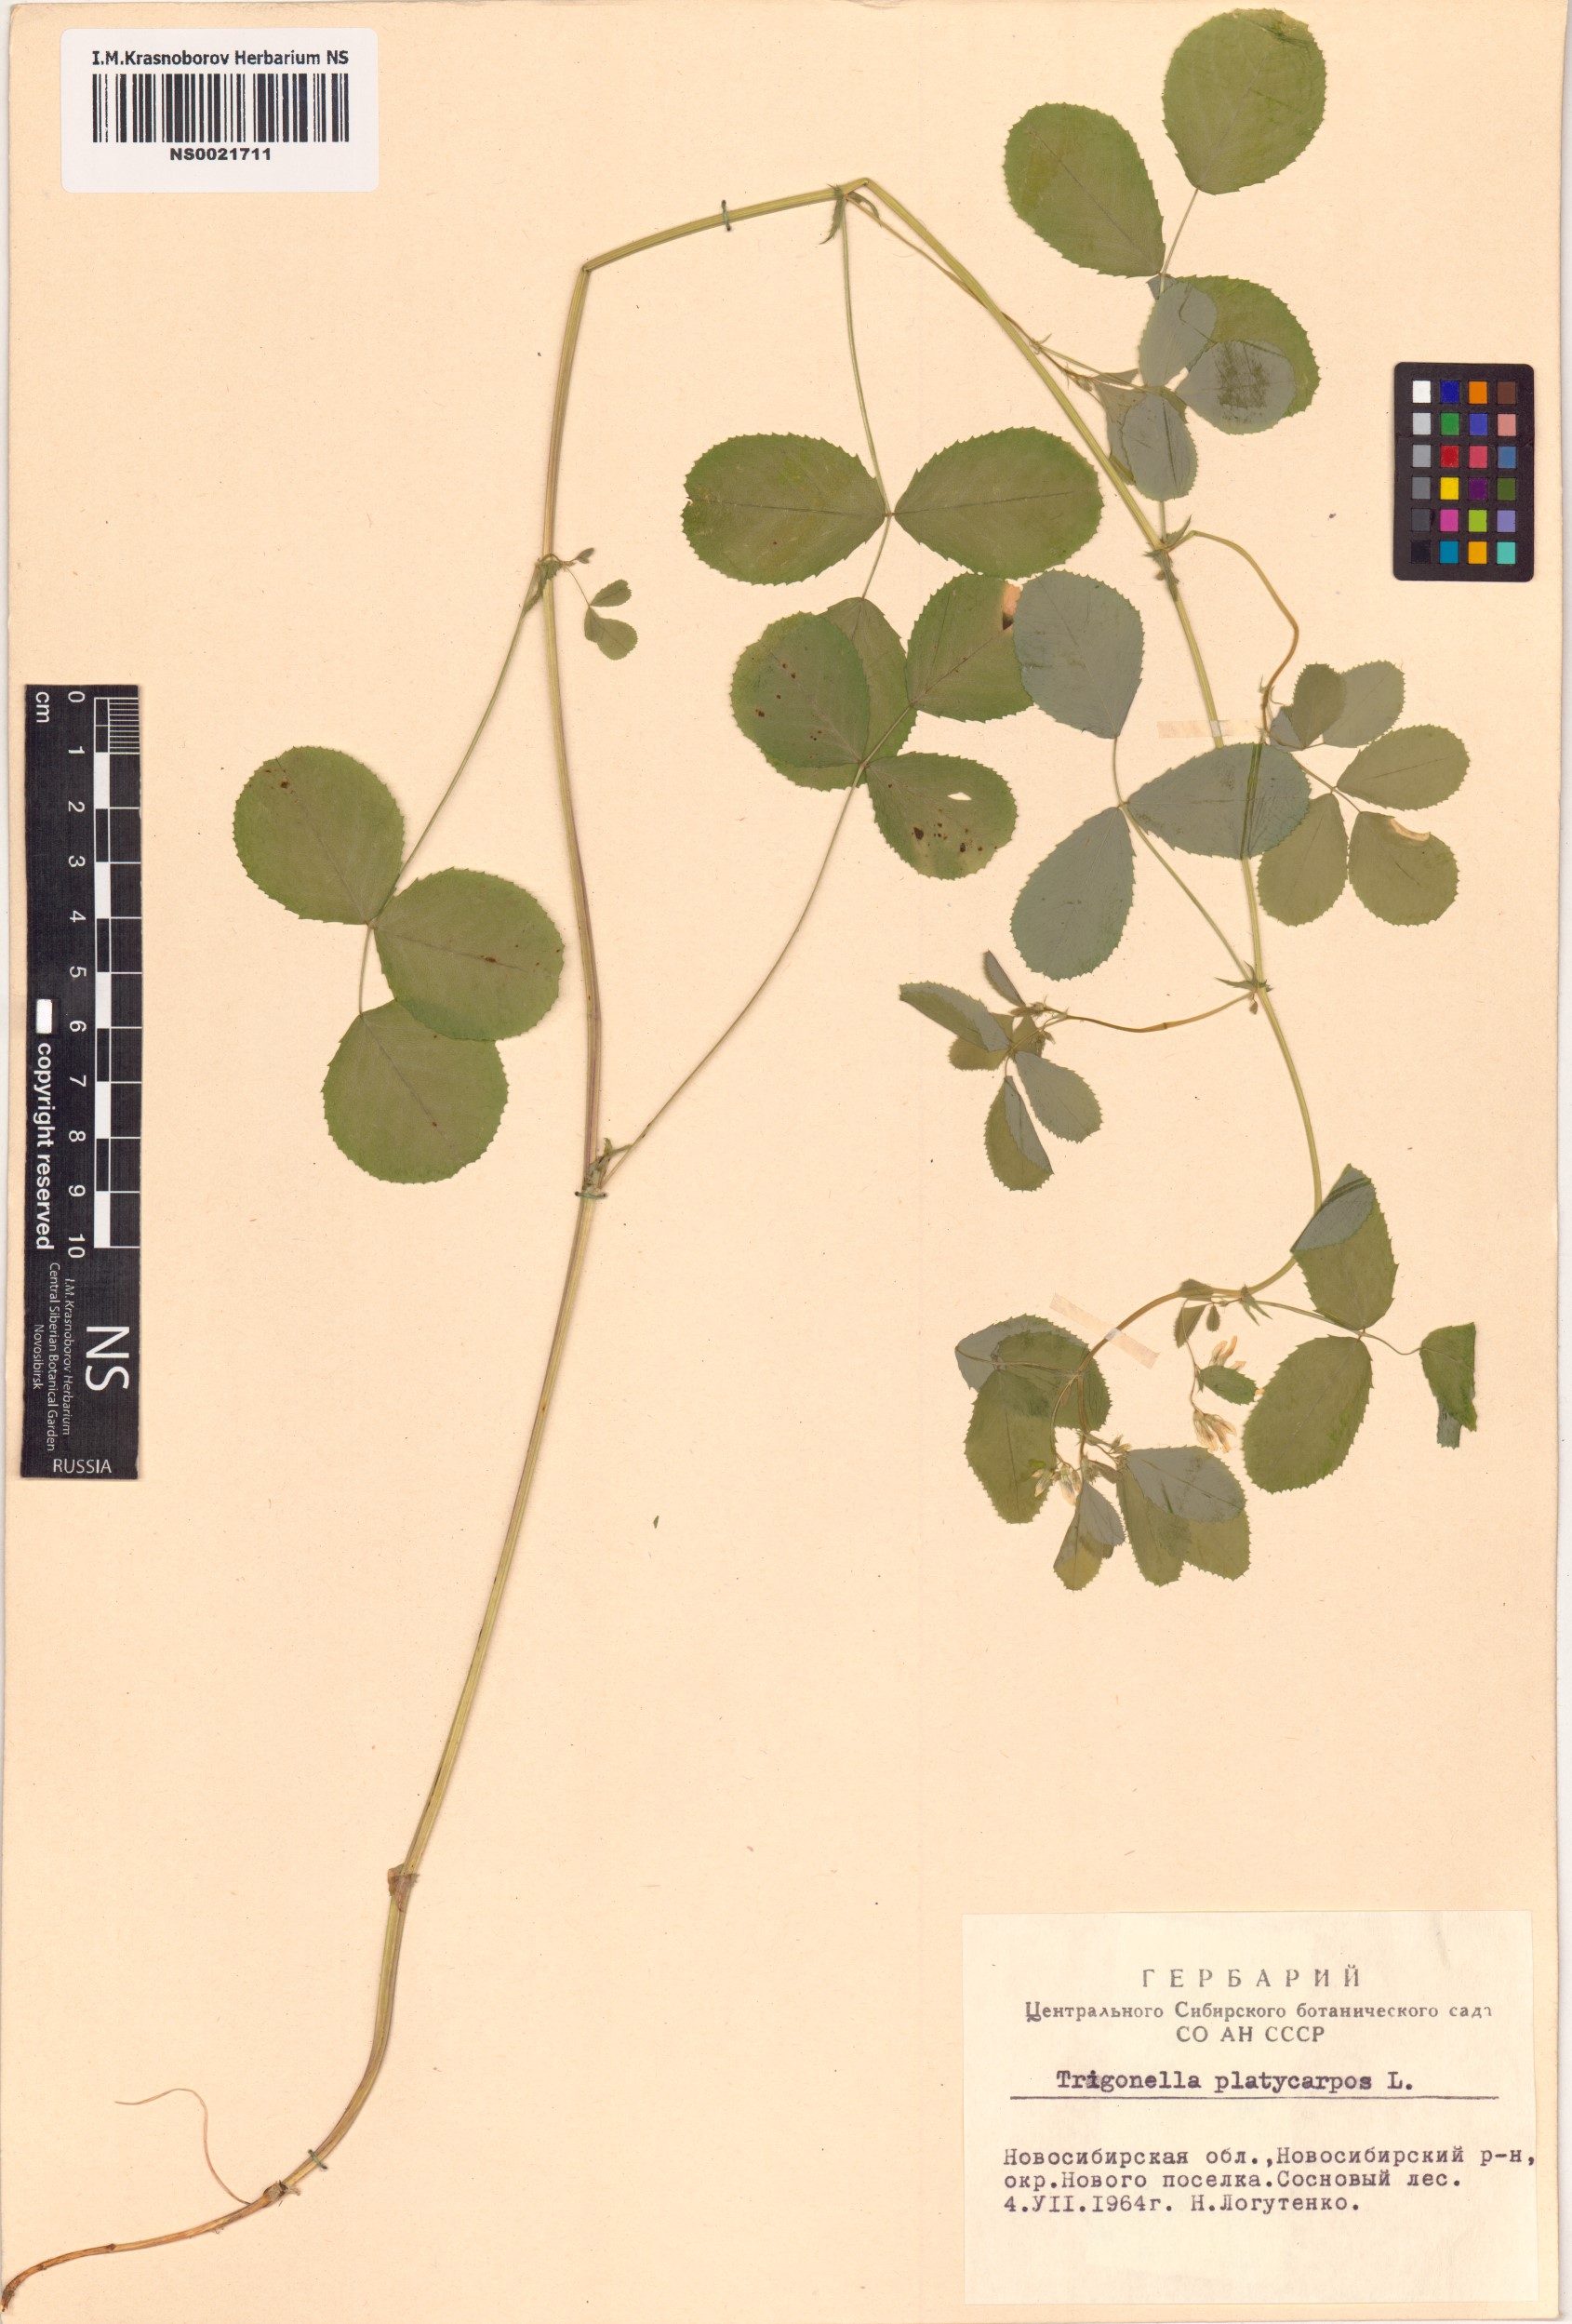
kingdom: Plantae
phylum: Tracheophyta
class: Magnoliopsida
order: Fabales
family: Fabaceae
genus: Medicago
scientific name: Medicago platycarpos
